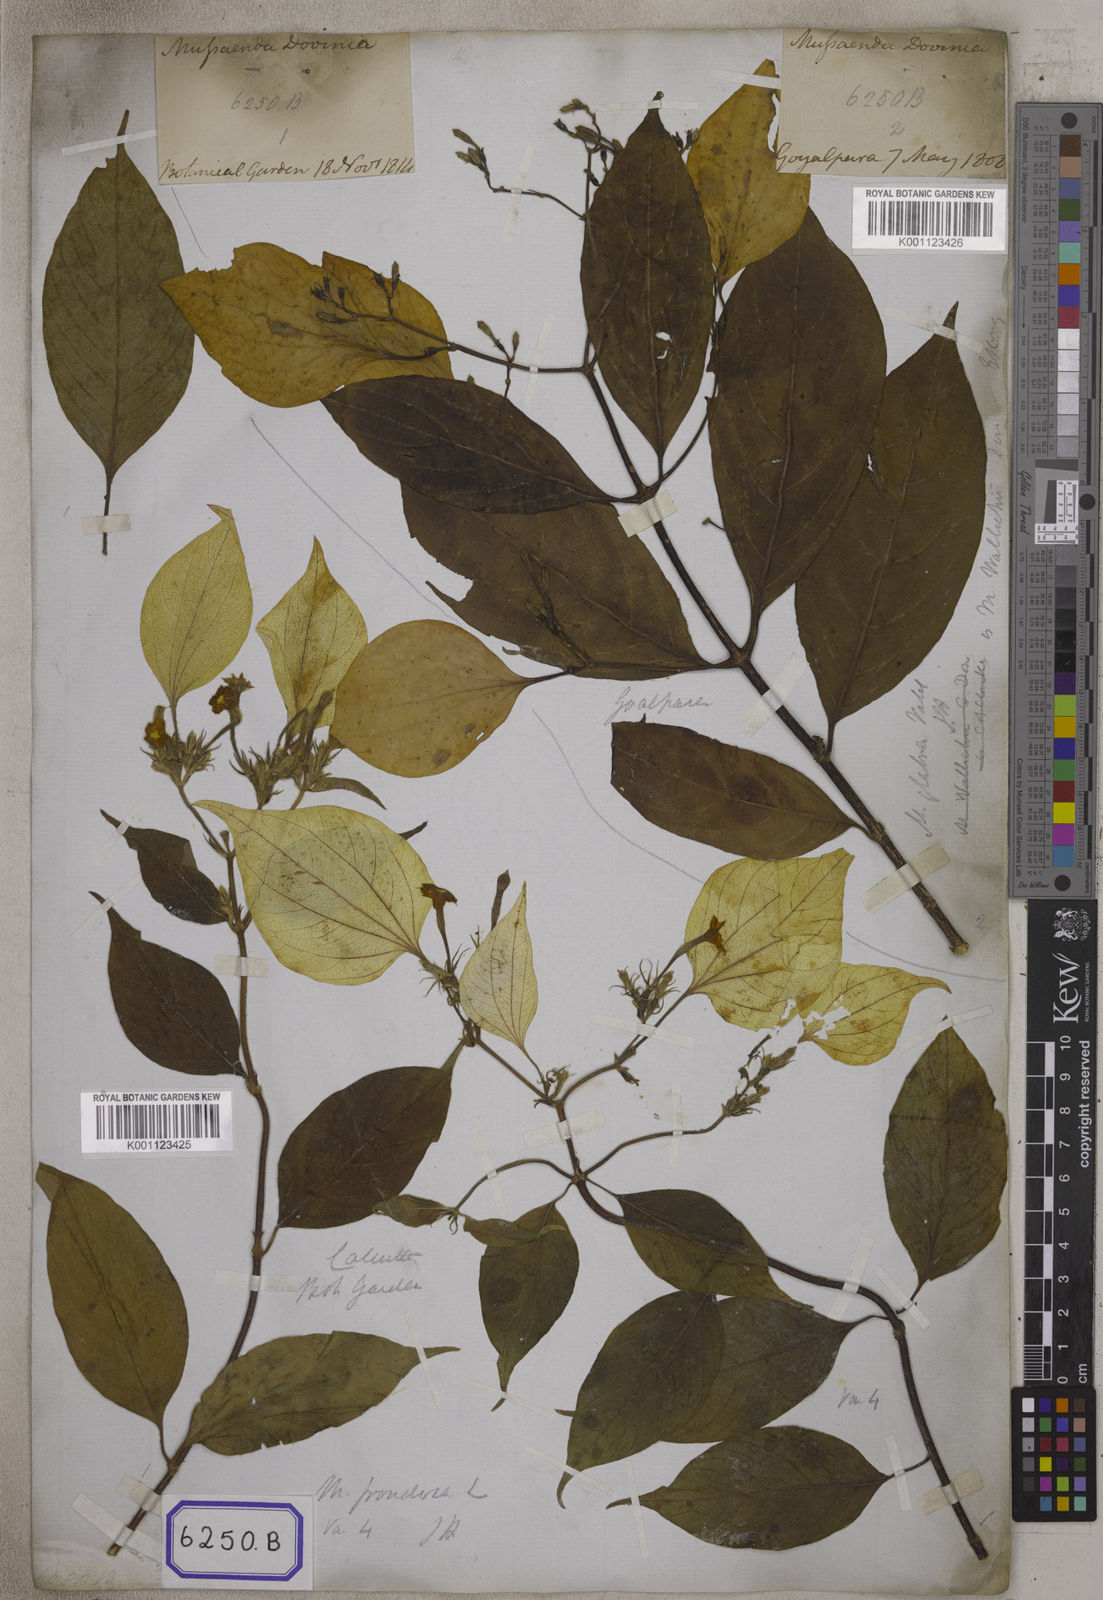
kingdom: Plantae
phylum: Tracheophyta
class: Magnoliopsida
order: Gentianales
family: Rubiaceae
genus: Mussaenda
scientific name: Mussaenda
